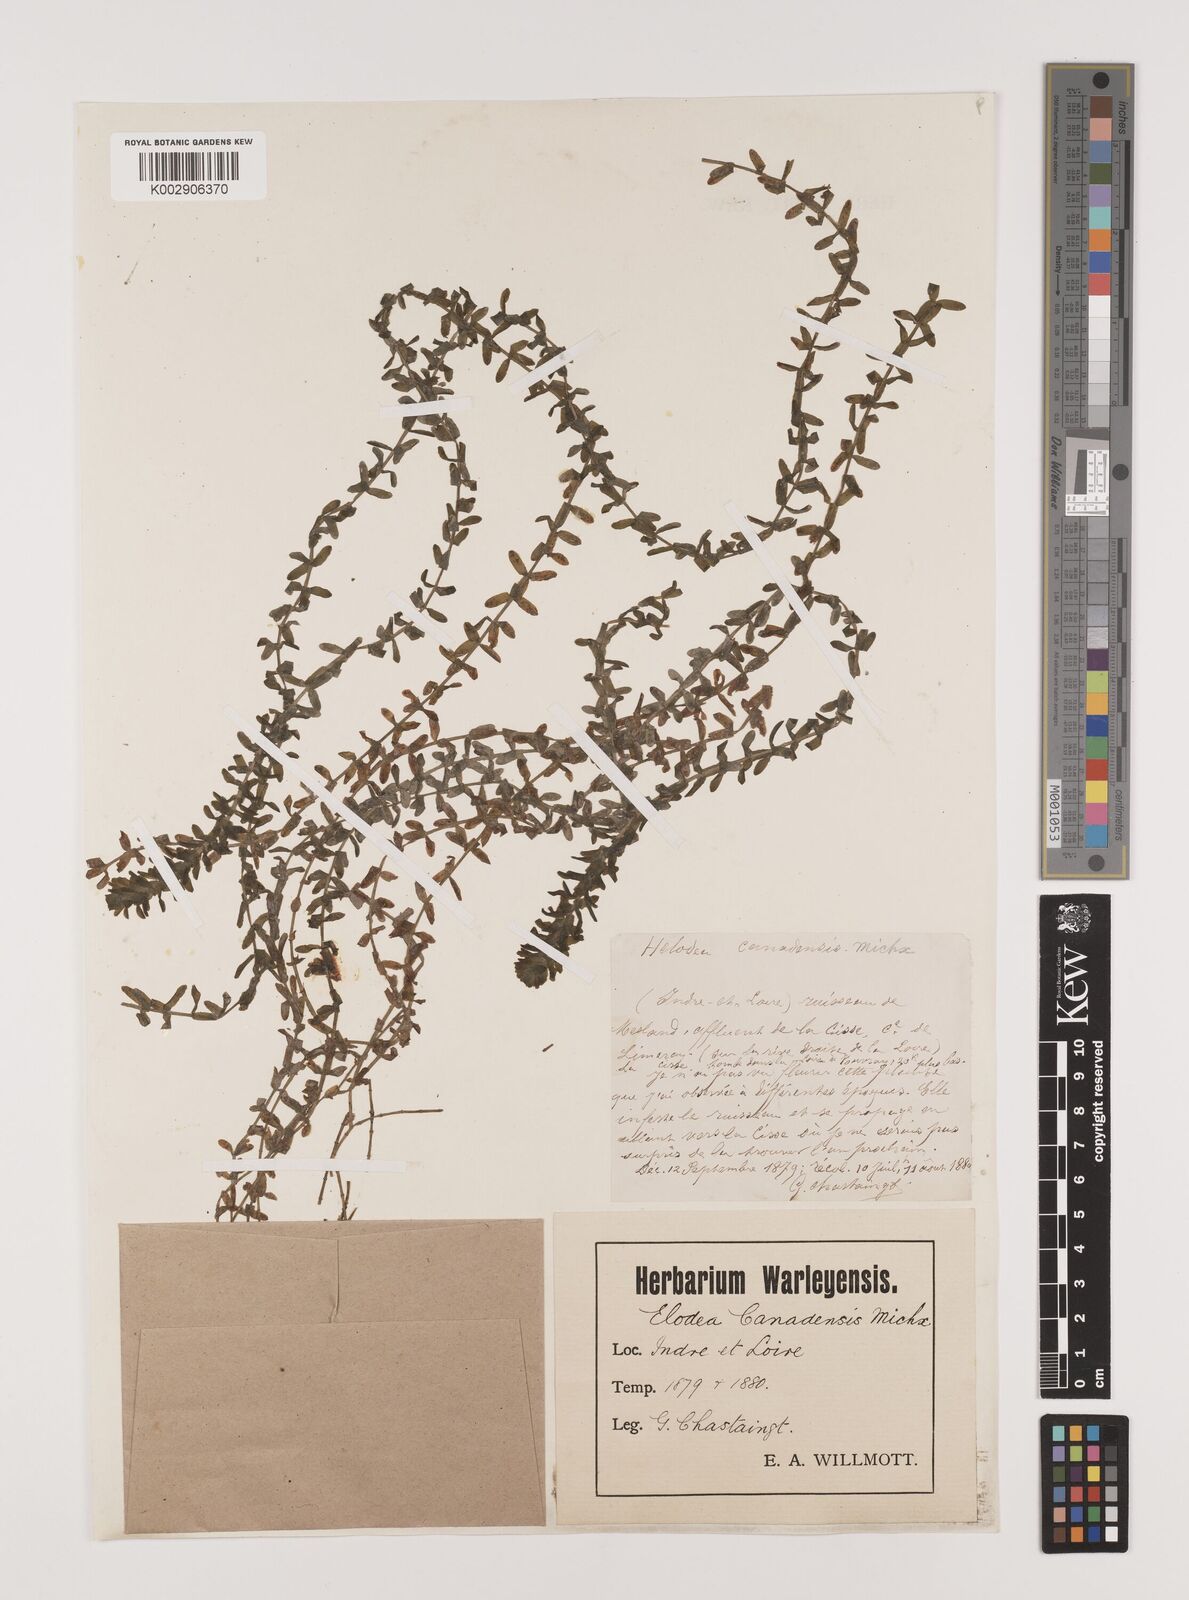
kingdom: Plantae
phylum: Tracheophyta
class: Liliopsida
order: Alismatales
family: Hydrocharitaceae
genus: Elodea
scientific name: Elodea canadensis
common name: Canadian waterweed
